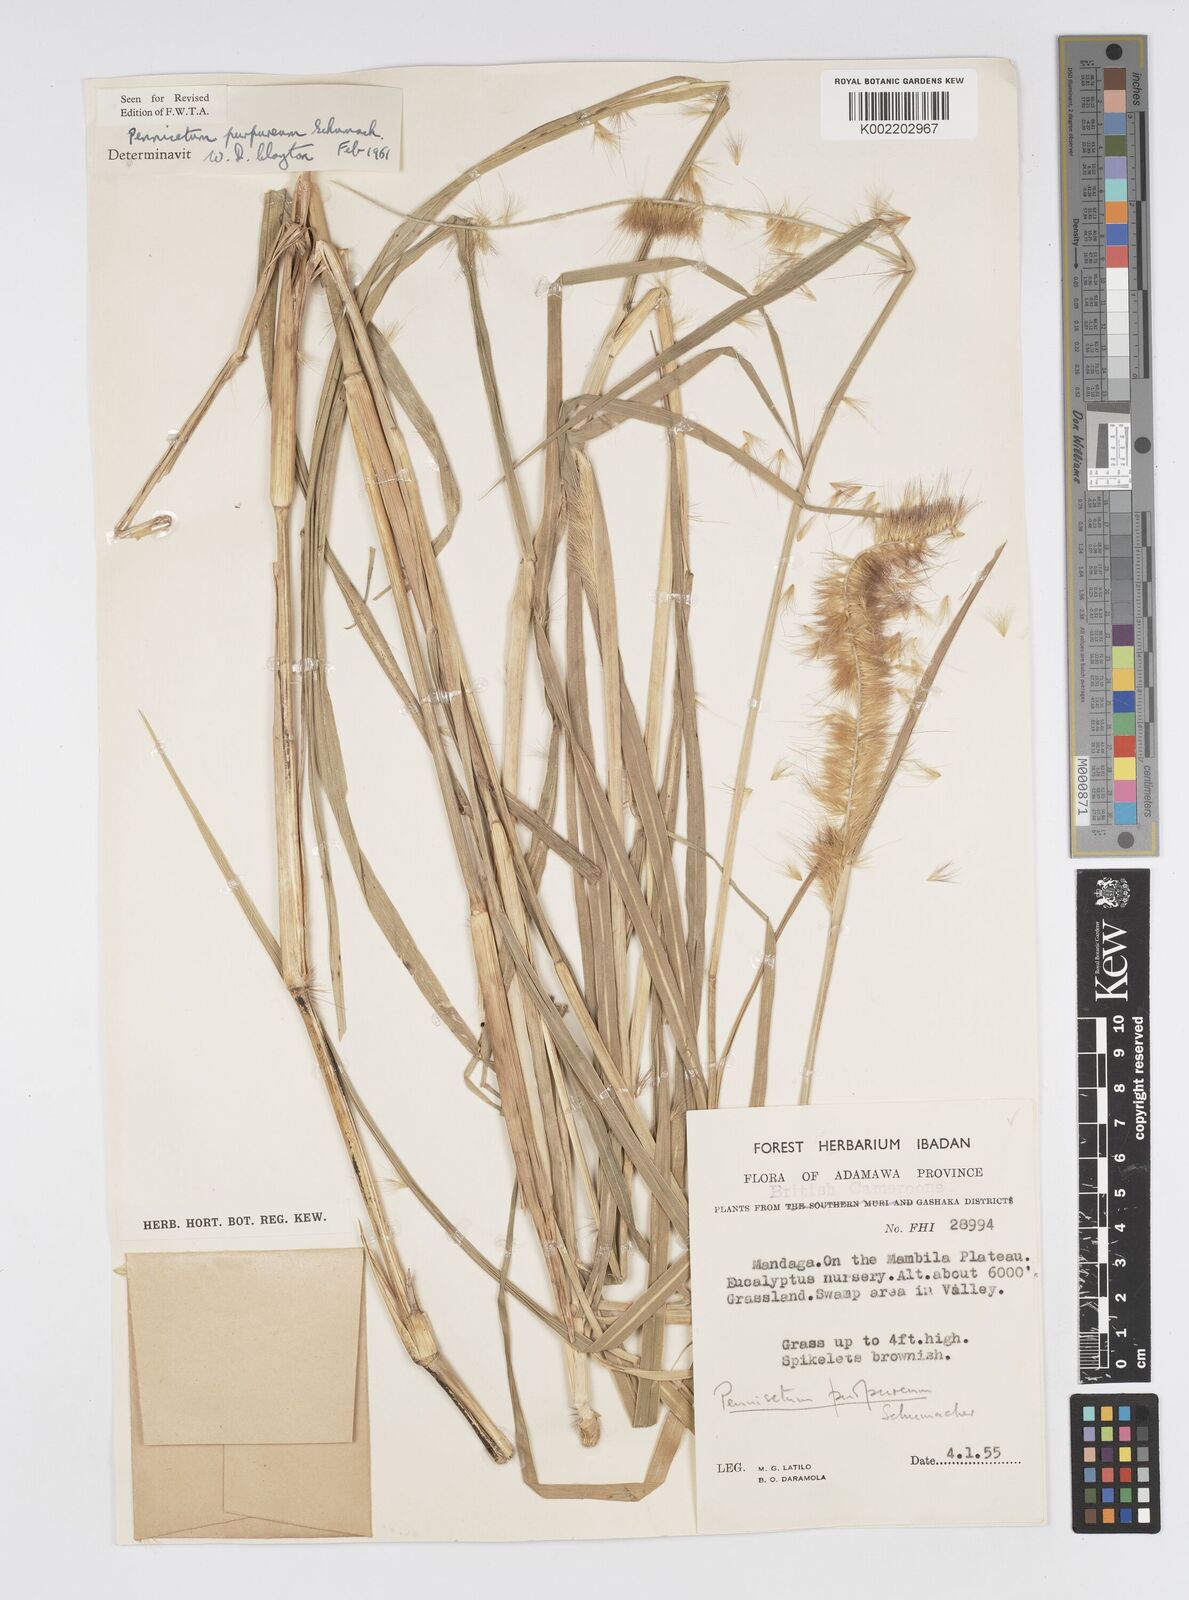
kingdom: Plantae
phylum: Tracheophyta
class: Liliopsida
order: Poales
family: Poaceae
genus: Cenchrus
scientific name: Cenchrus purpureus
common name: Elephant grass
